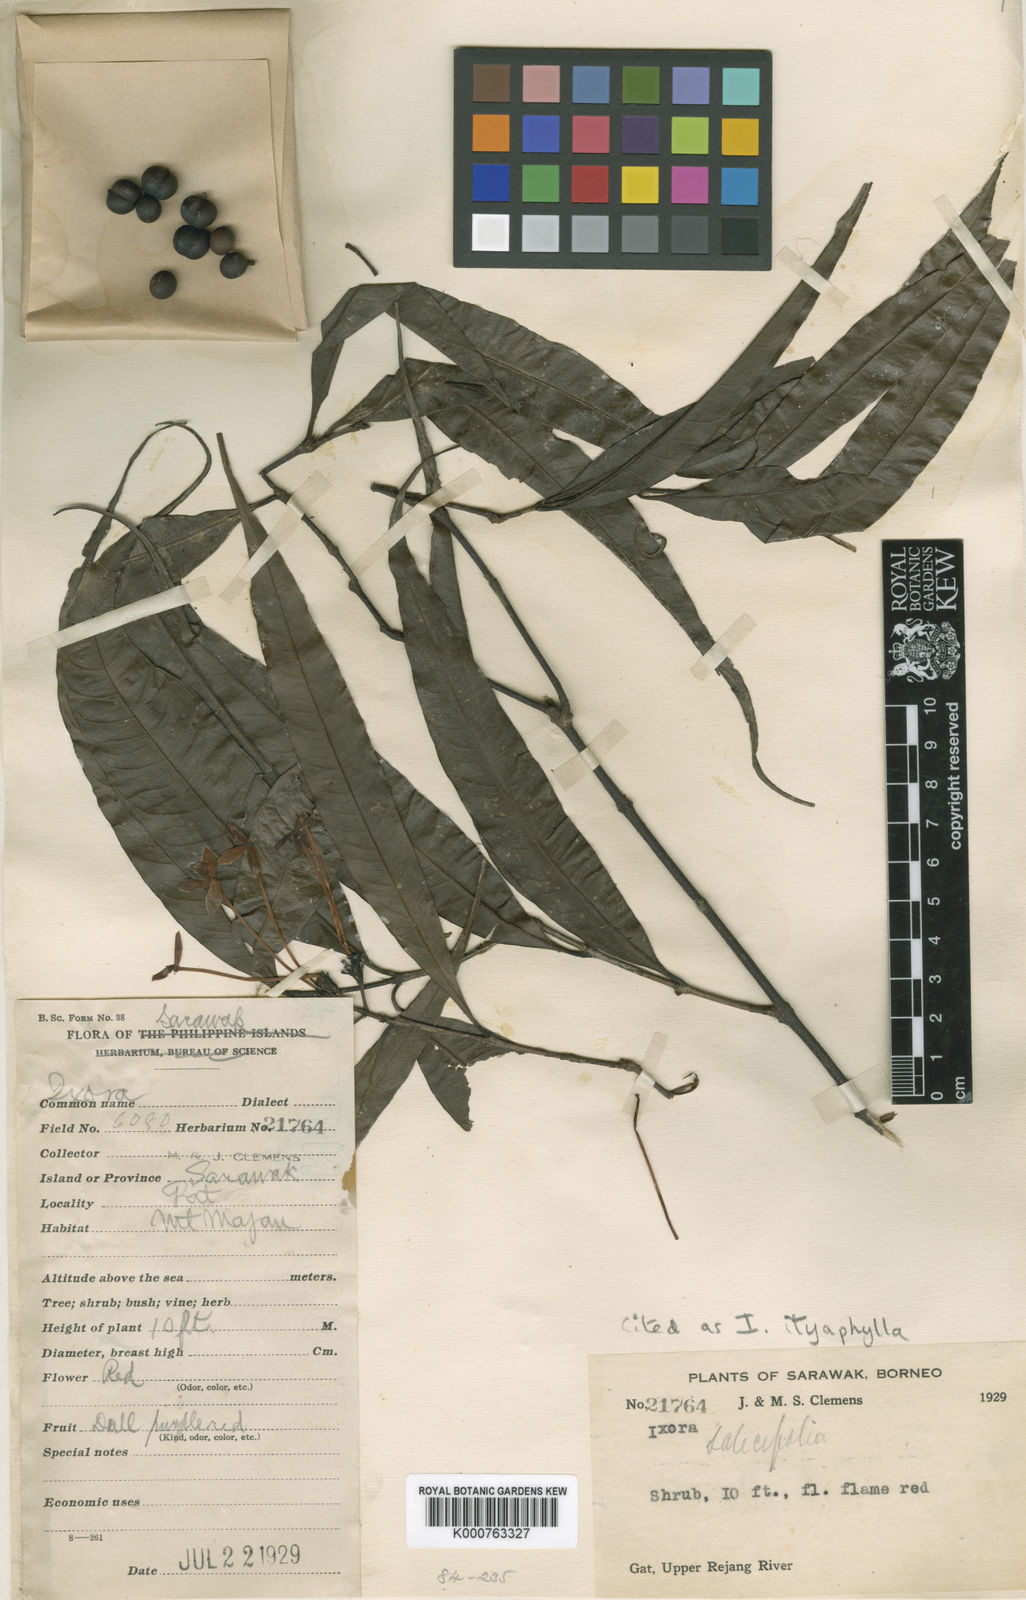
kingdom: Plantae
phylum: Tracheophyta
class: Magnoliopsida
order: Gentianales
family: Rubiaceae
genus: Ixora
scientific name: Ixora iteaphylla
